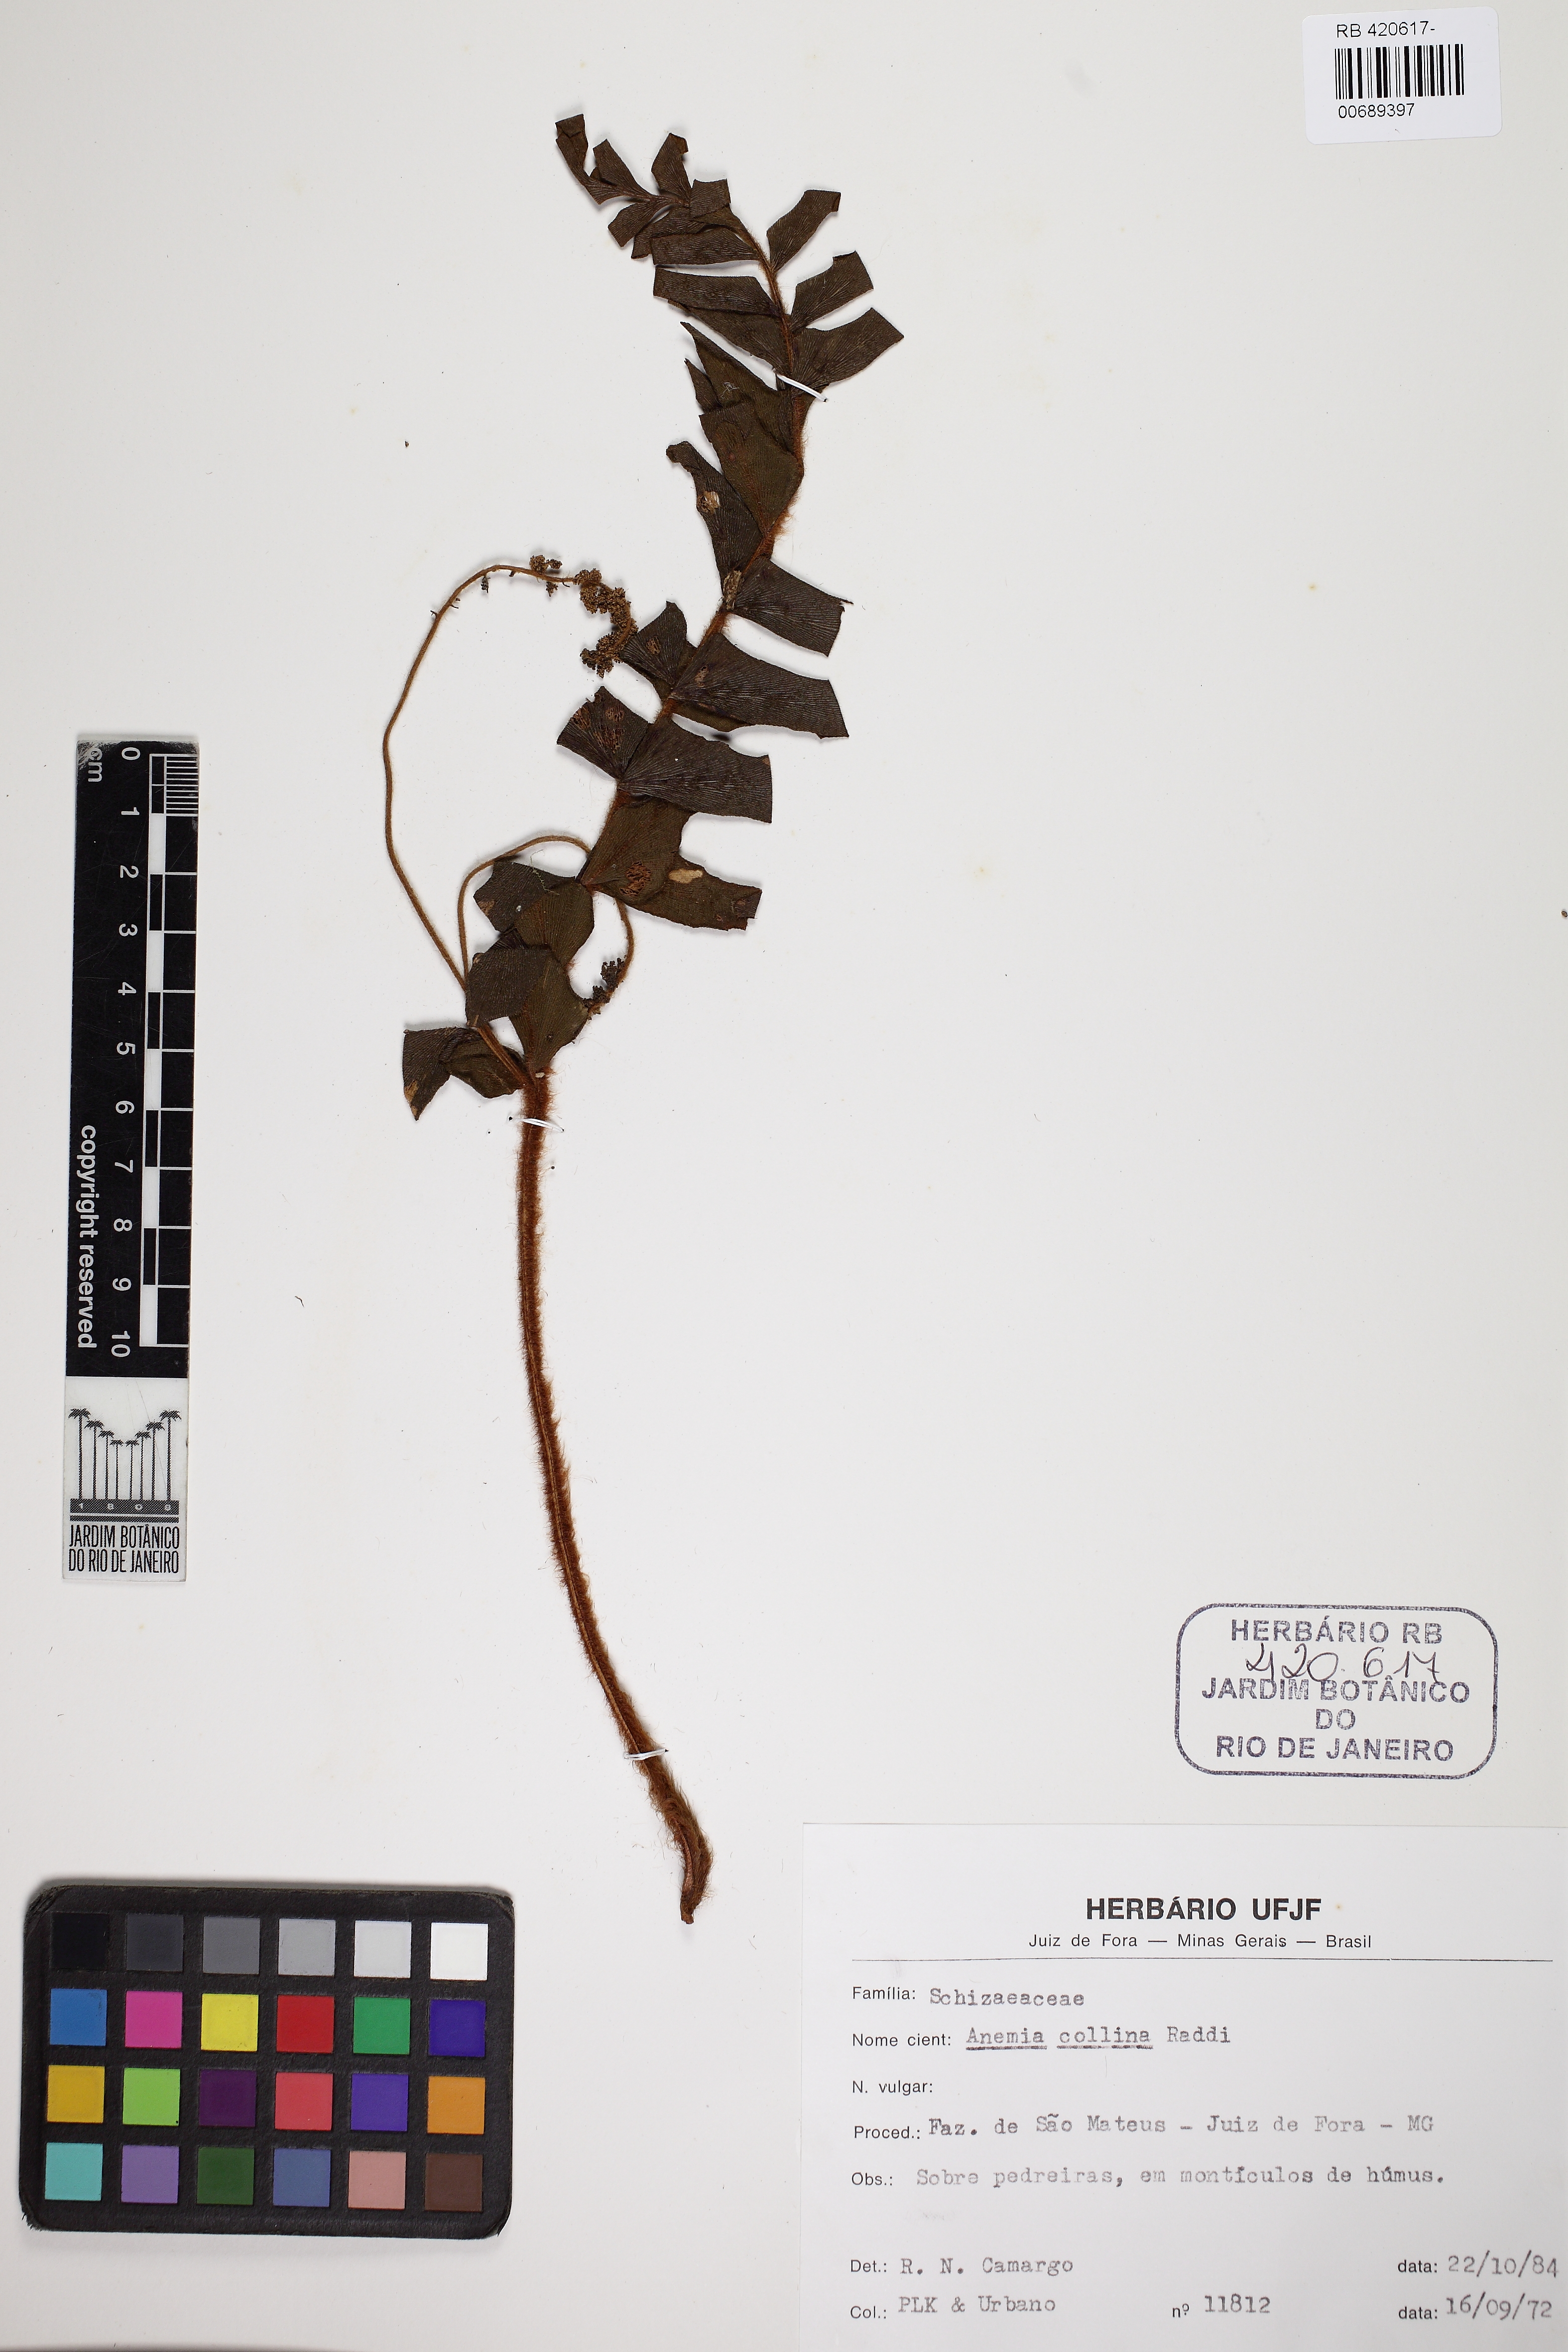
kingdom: Plantae
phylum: Tracheophyta
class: Polypodiopsida
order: Schizaeales
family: Anemiaceae
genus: Anemia
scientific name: Anemia collina
